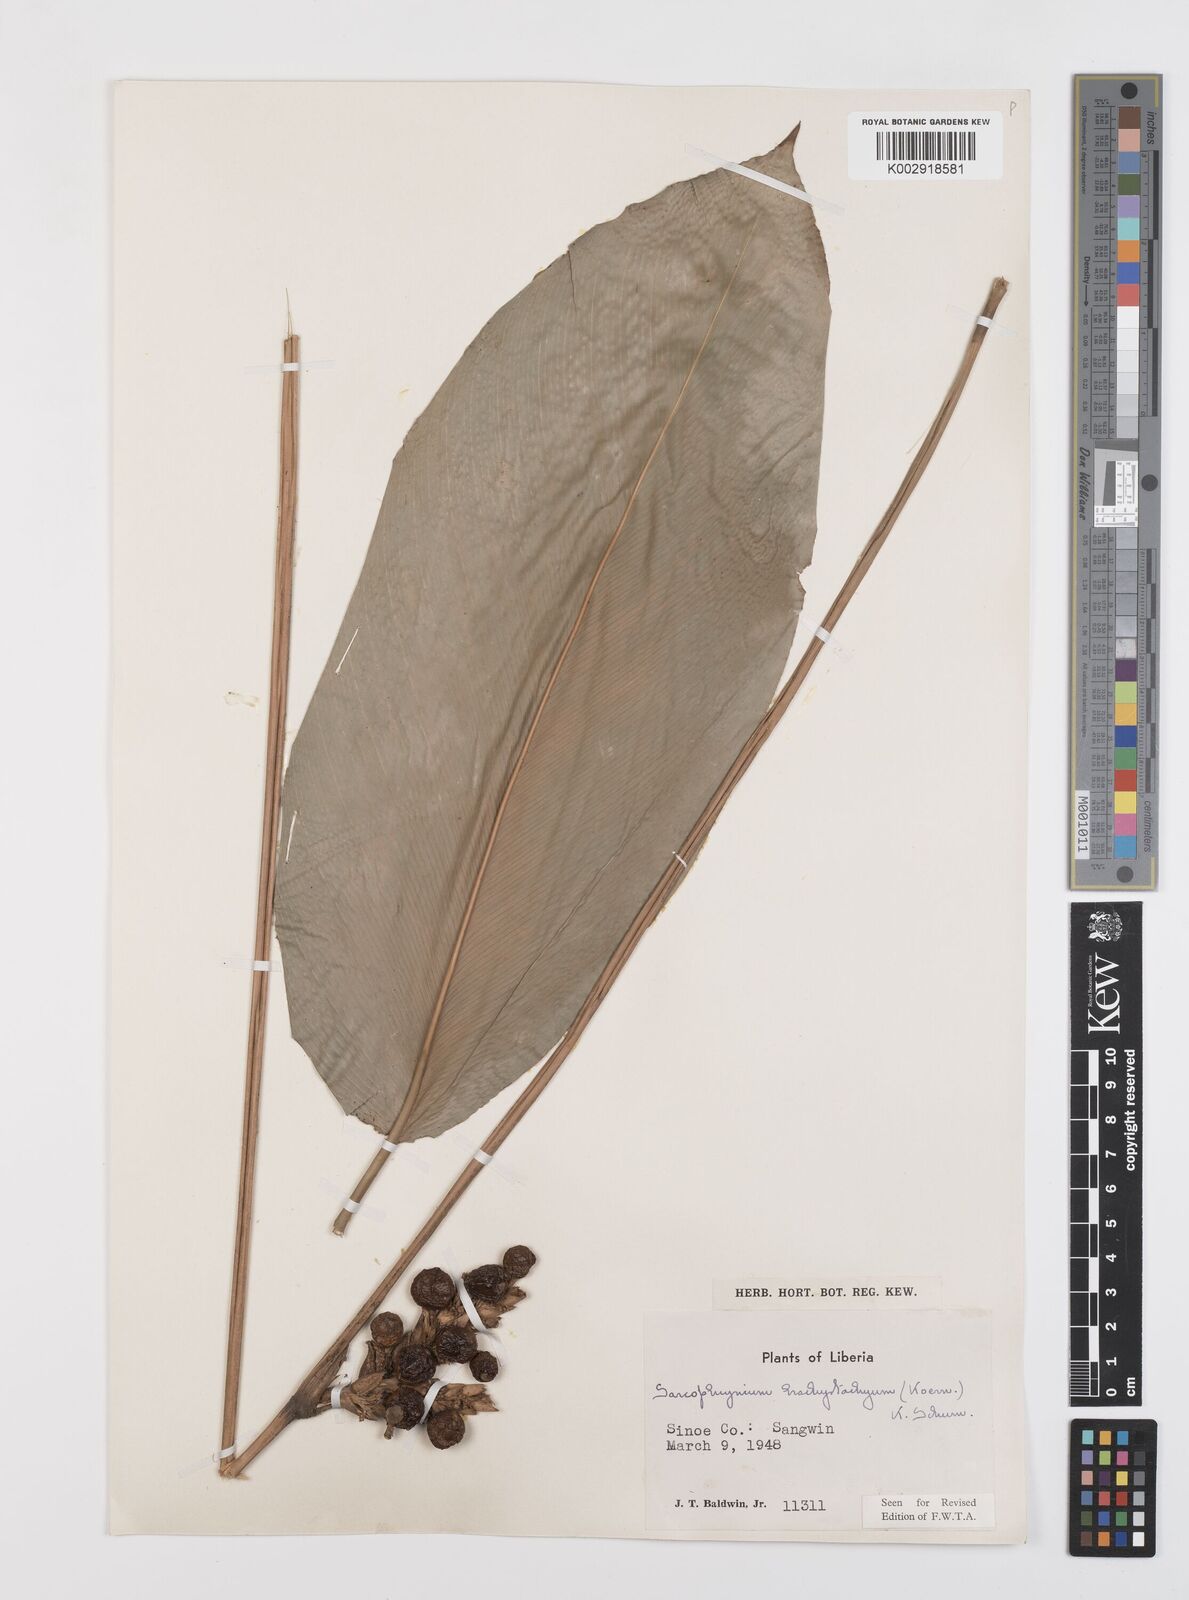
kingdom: Plantae
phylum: Tracheophyta
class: Liliopsida
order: Zingiberales
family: Marantaceae
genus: Sarcophrynium
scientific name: Sarcophrynium brachystachyum
